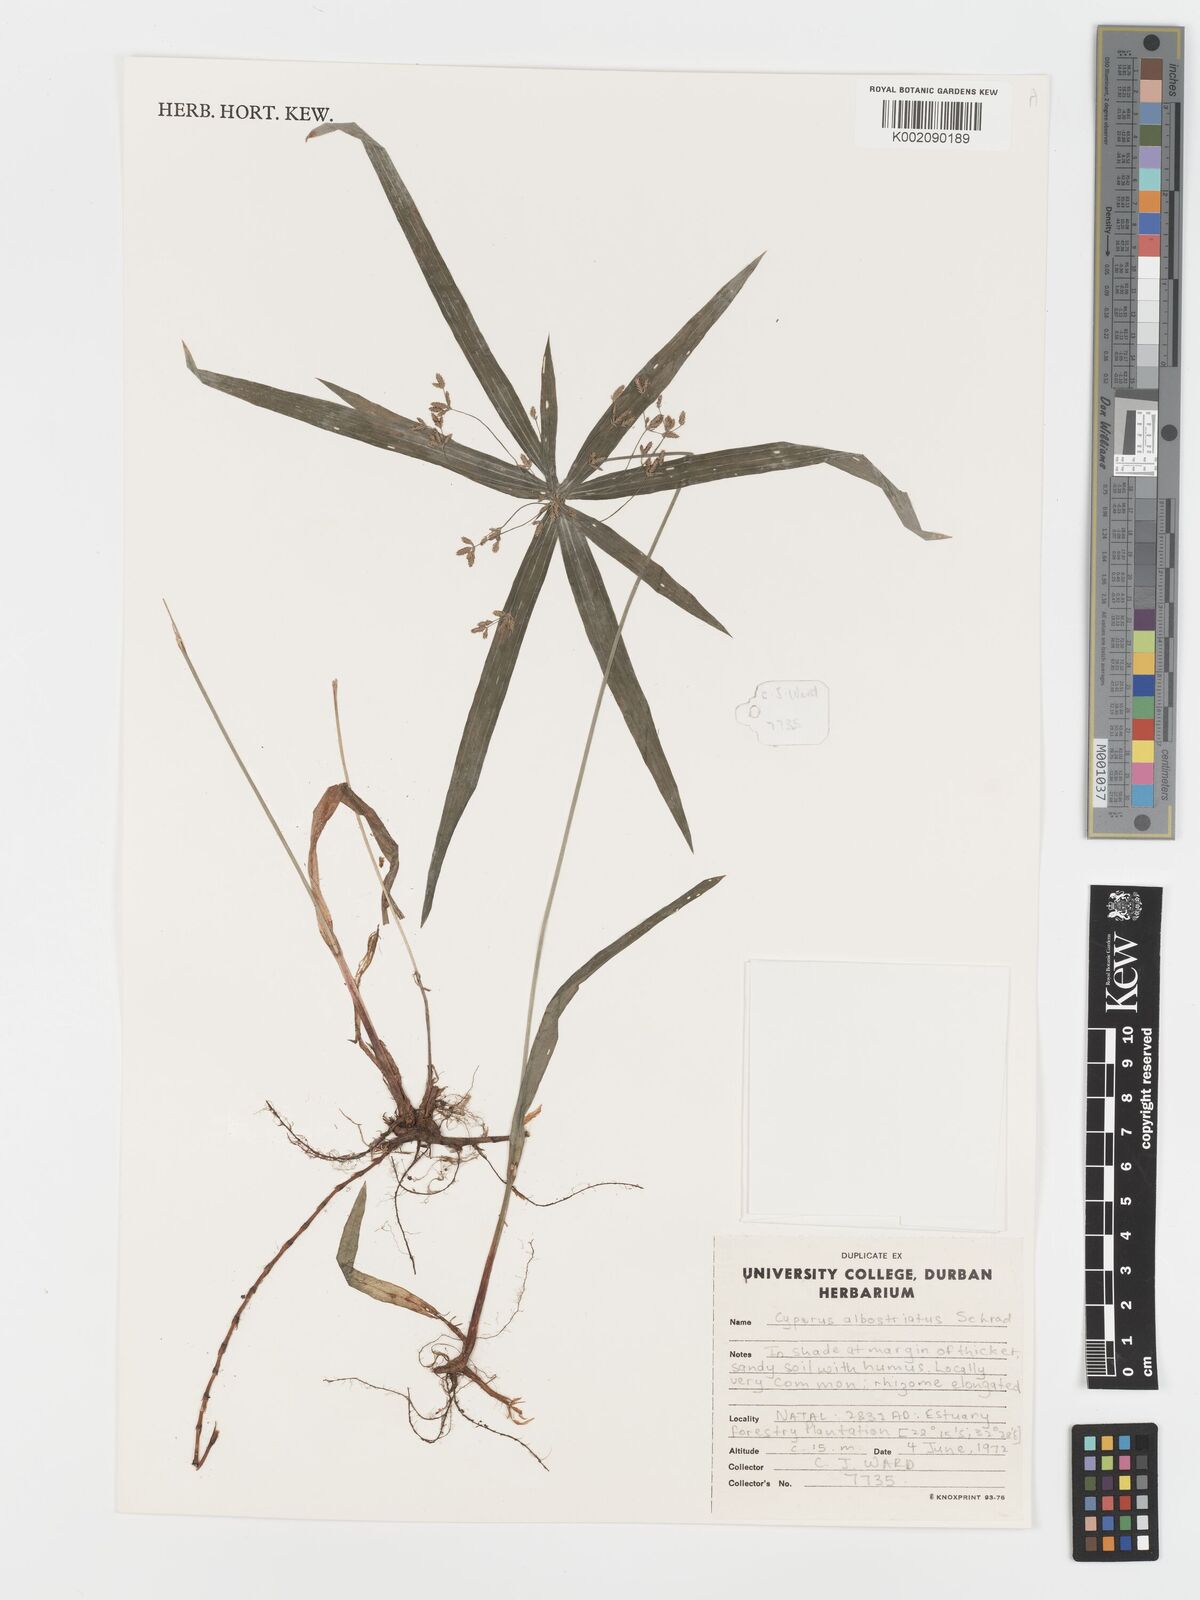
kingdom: Plantae
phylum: Tracheophyta
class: Liliopsida
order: Poales
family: Cyperaceae
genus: Cyperus
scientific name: Cyperus albostriatus
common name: Dwarf umbrella-grass
